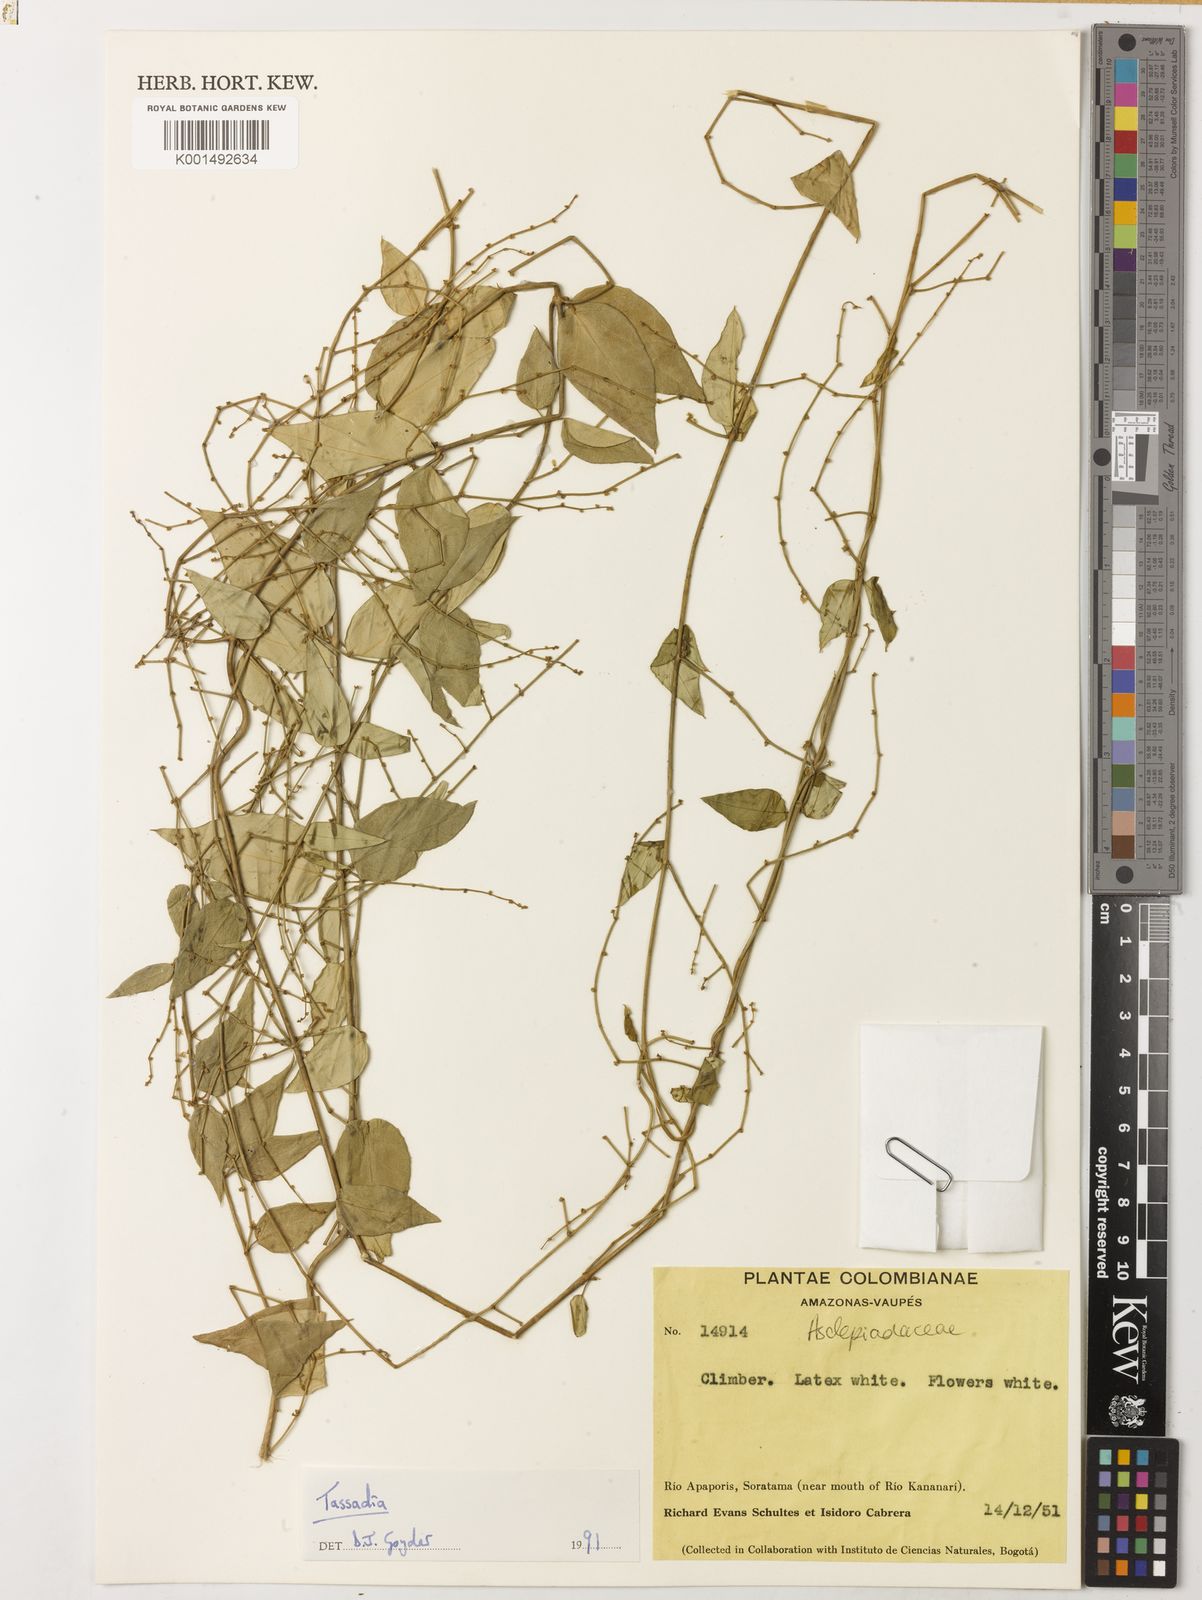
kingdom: Plantae
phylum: Tracheophyta
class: Magnoliopsida
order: Gentianales
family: Apocynaceae
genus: Tassadia
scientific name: Tassadia propinqua
